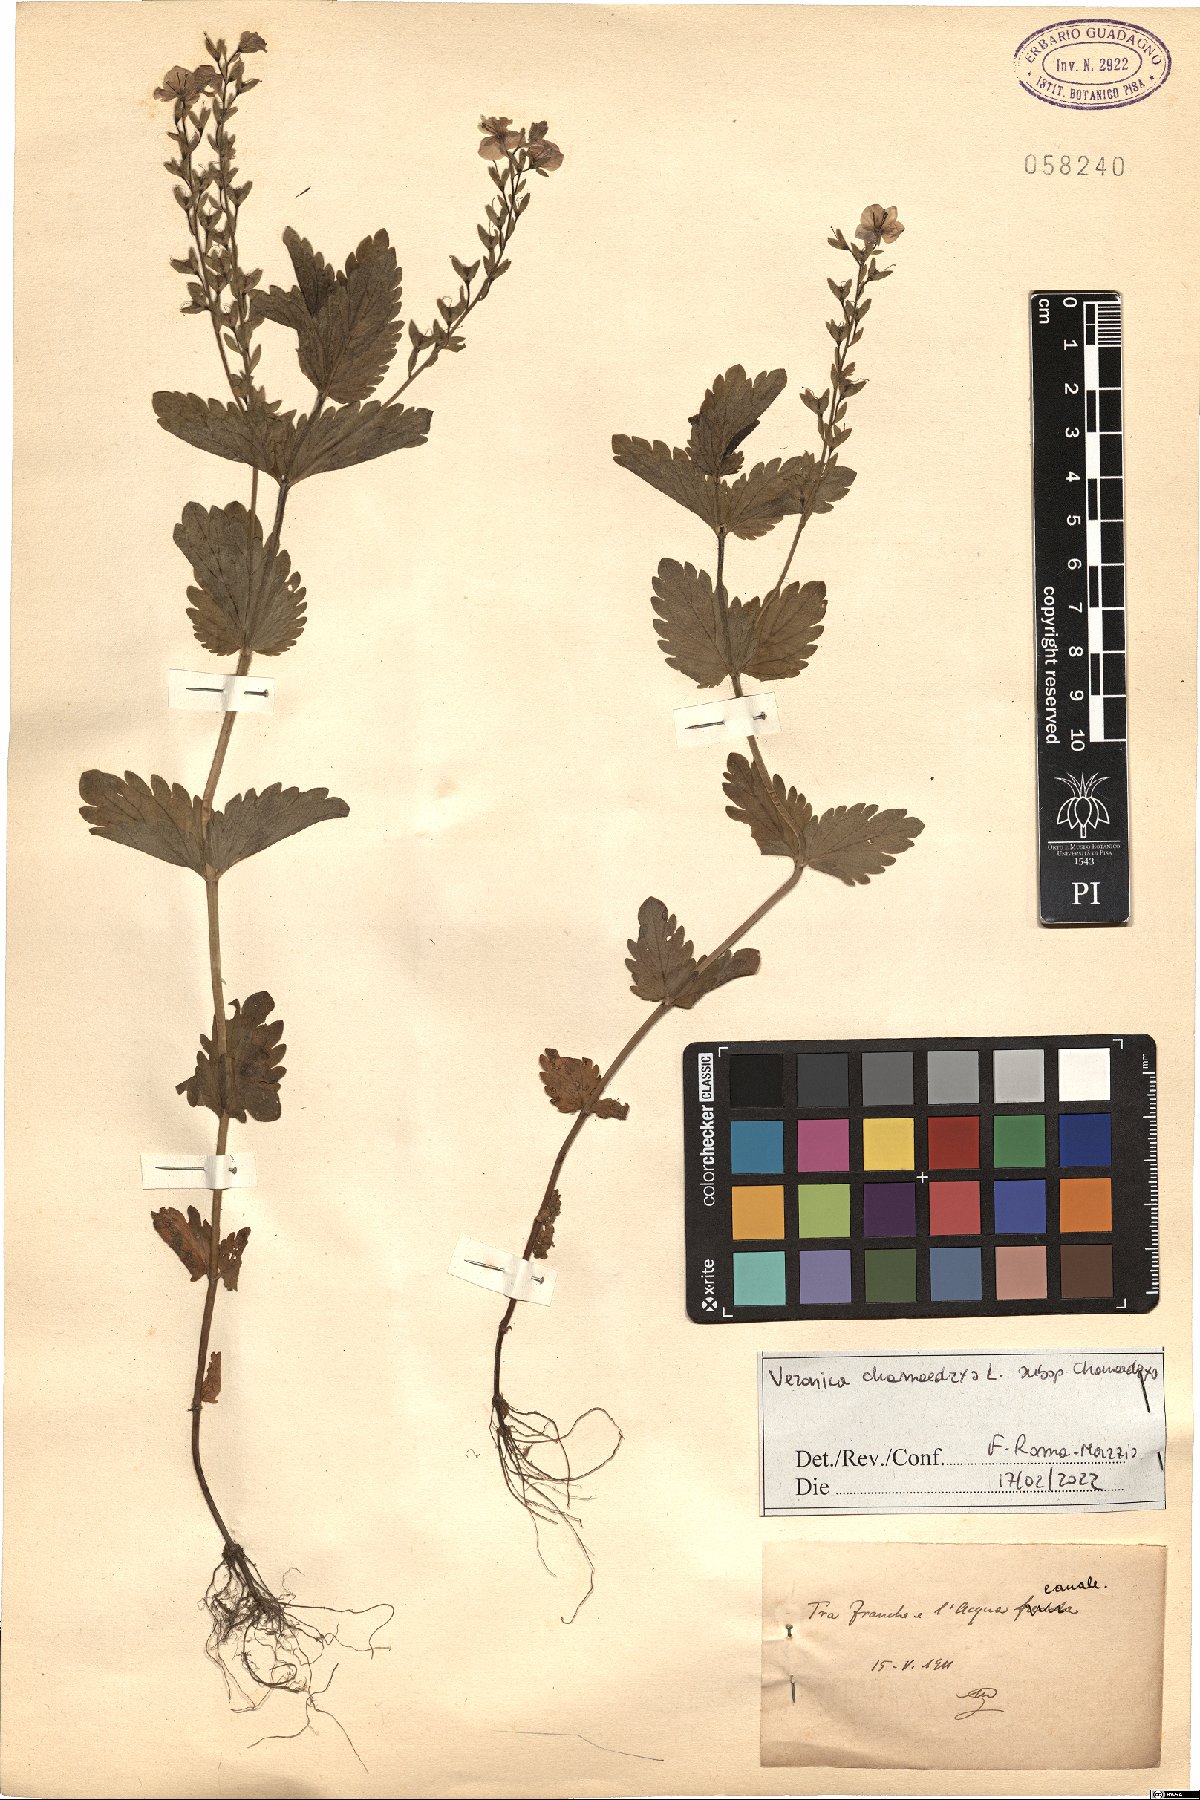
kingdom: Plantae
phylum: Tracheophyta
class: Magnoliopsida
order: Lamiales
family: Plantaginaceae
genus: Veronica
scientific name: Veronica chamaedrys
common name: Germander speedwell
